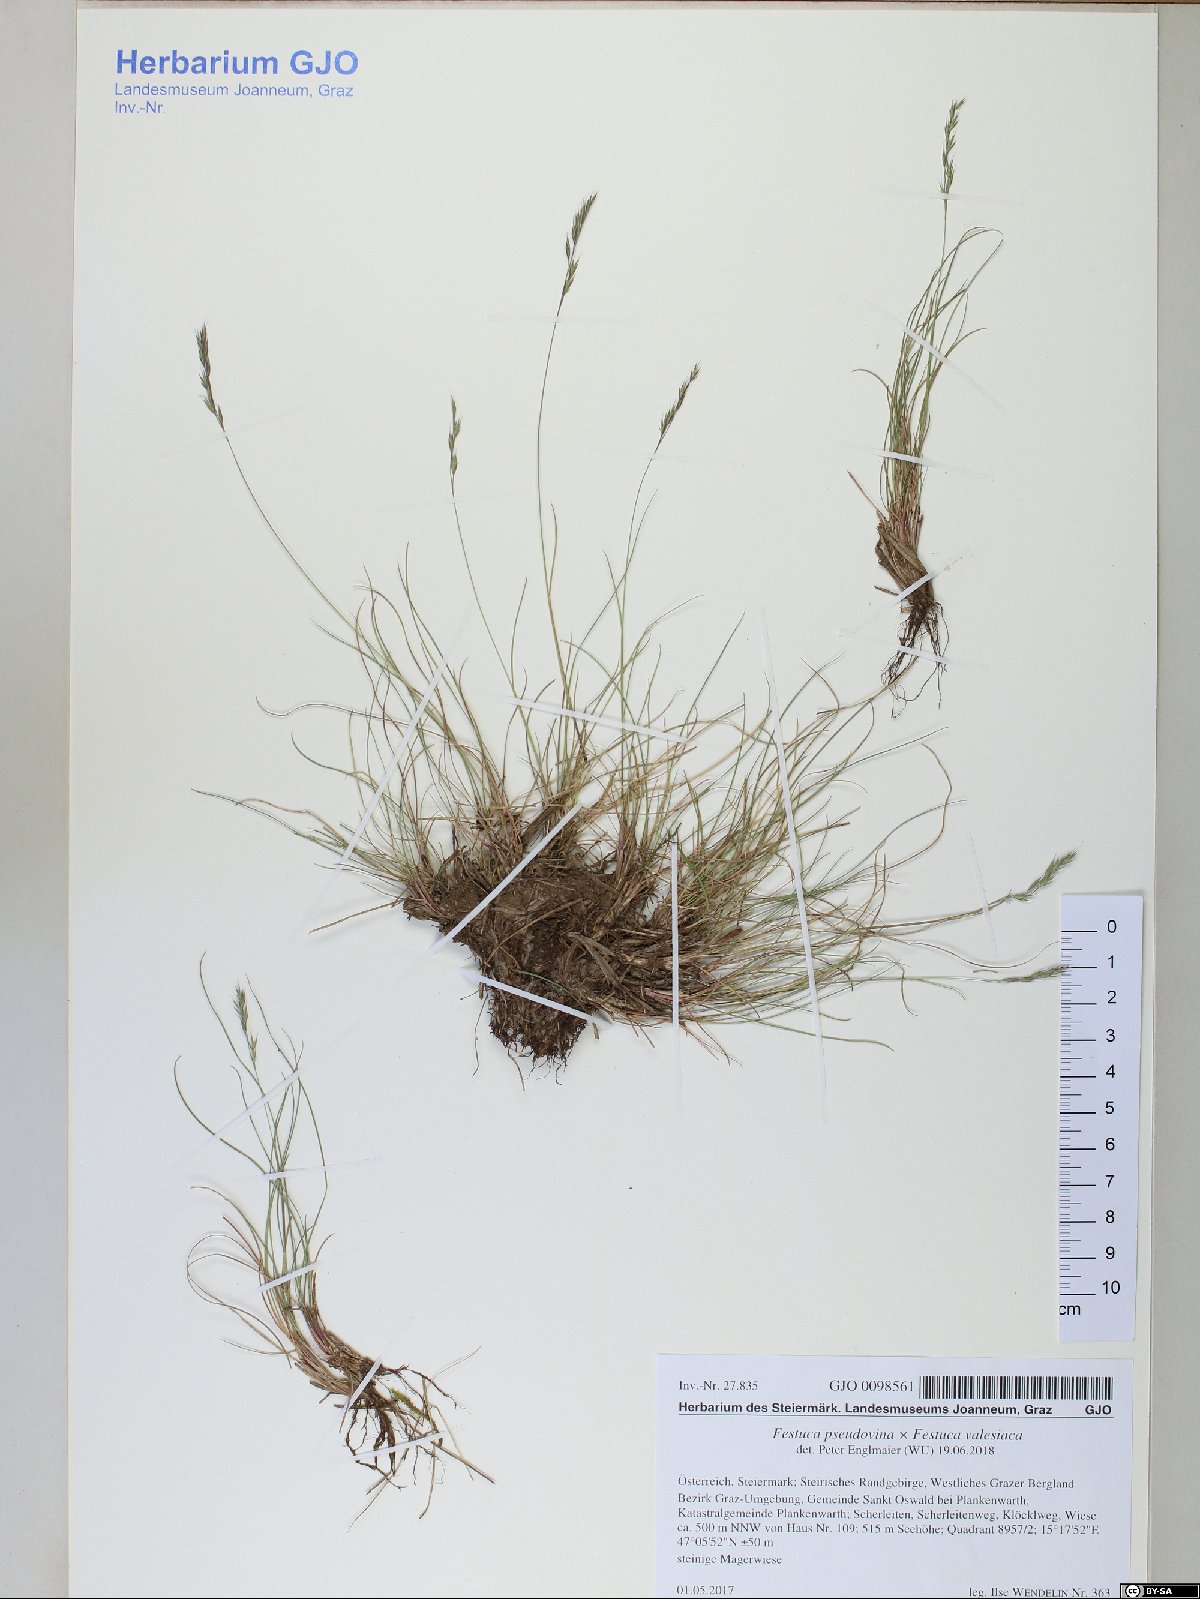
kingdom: Plantae
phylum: Tracheophyta
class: Liliopsida
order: Poales
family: Poaceae
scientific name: Poaceae
